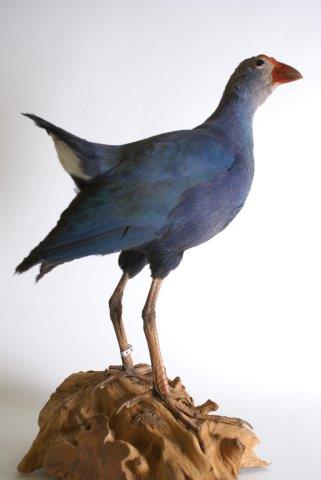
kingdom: Animalia
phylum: Chordata
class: Aves
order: Gruiformes
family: Rallidae
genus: Porphyrio
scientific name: Porphyrio porphyrio
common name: Purperkoet
